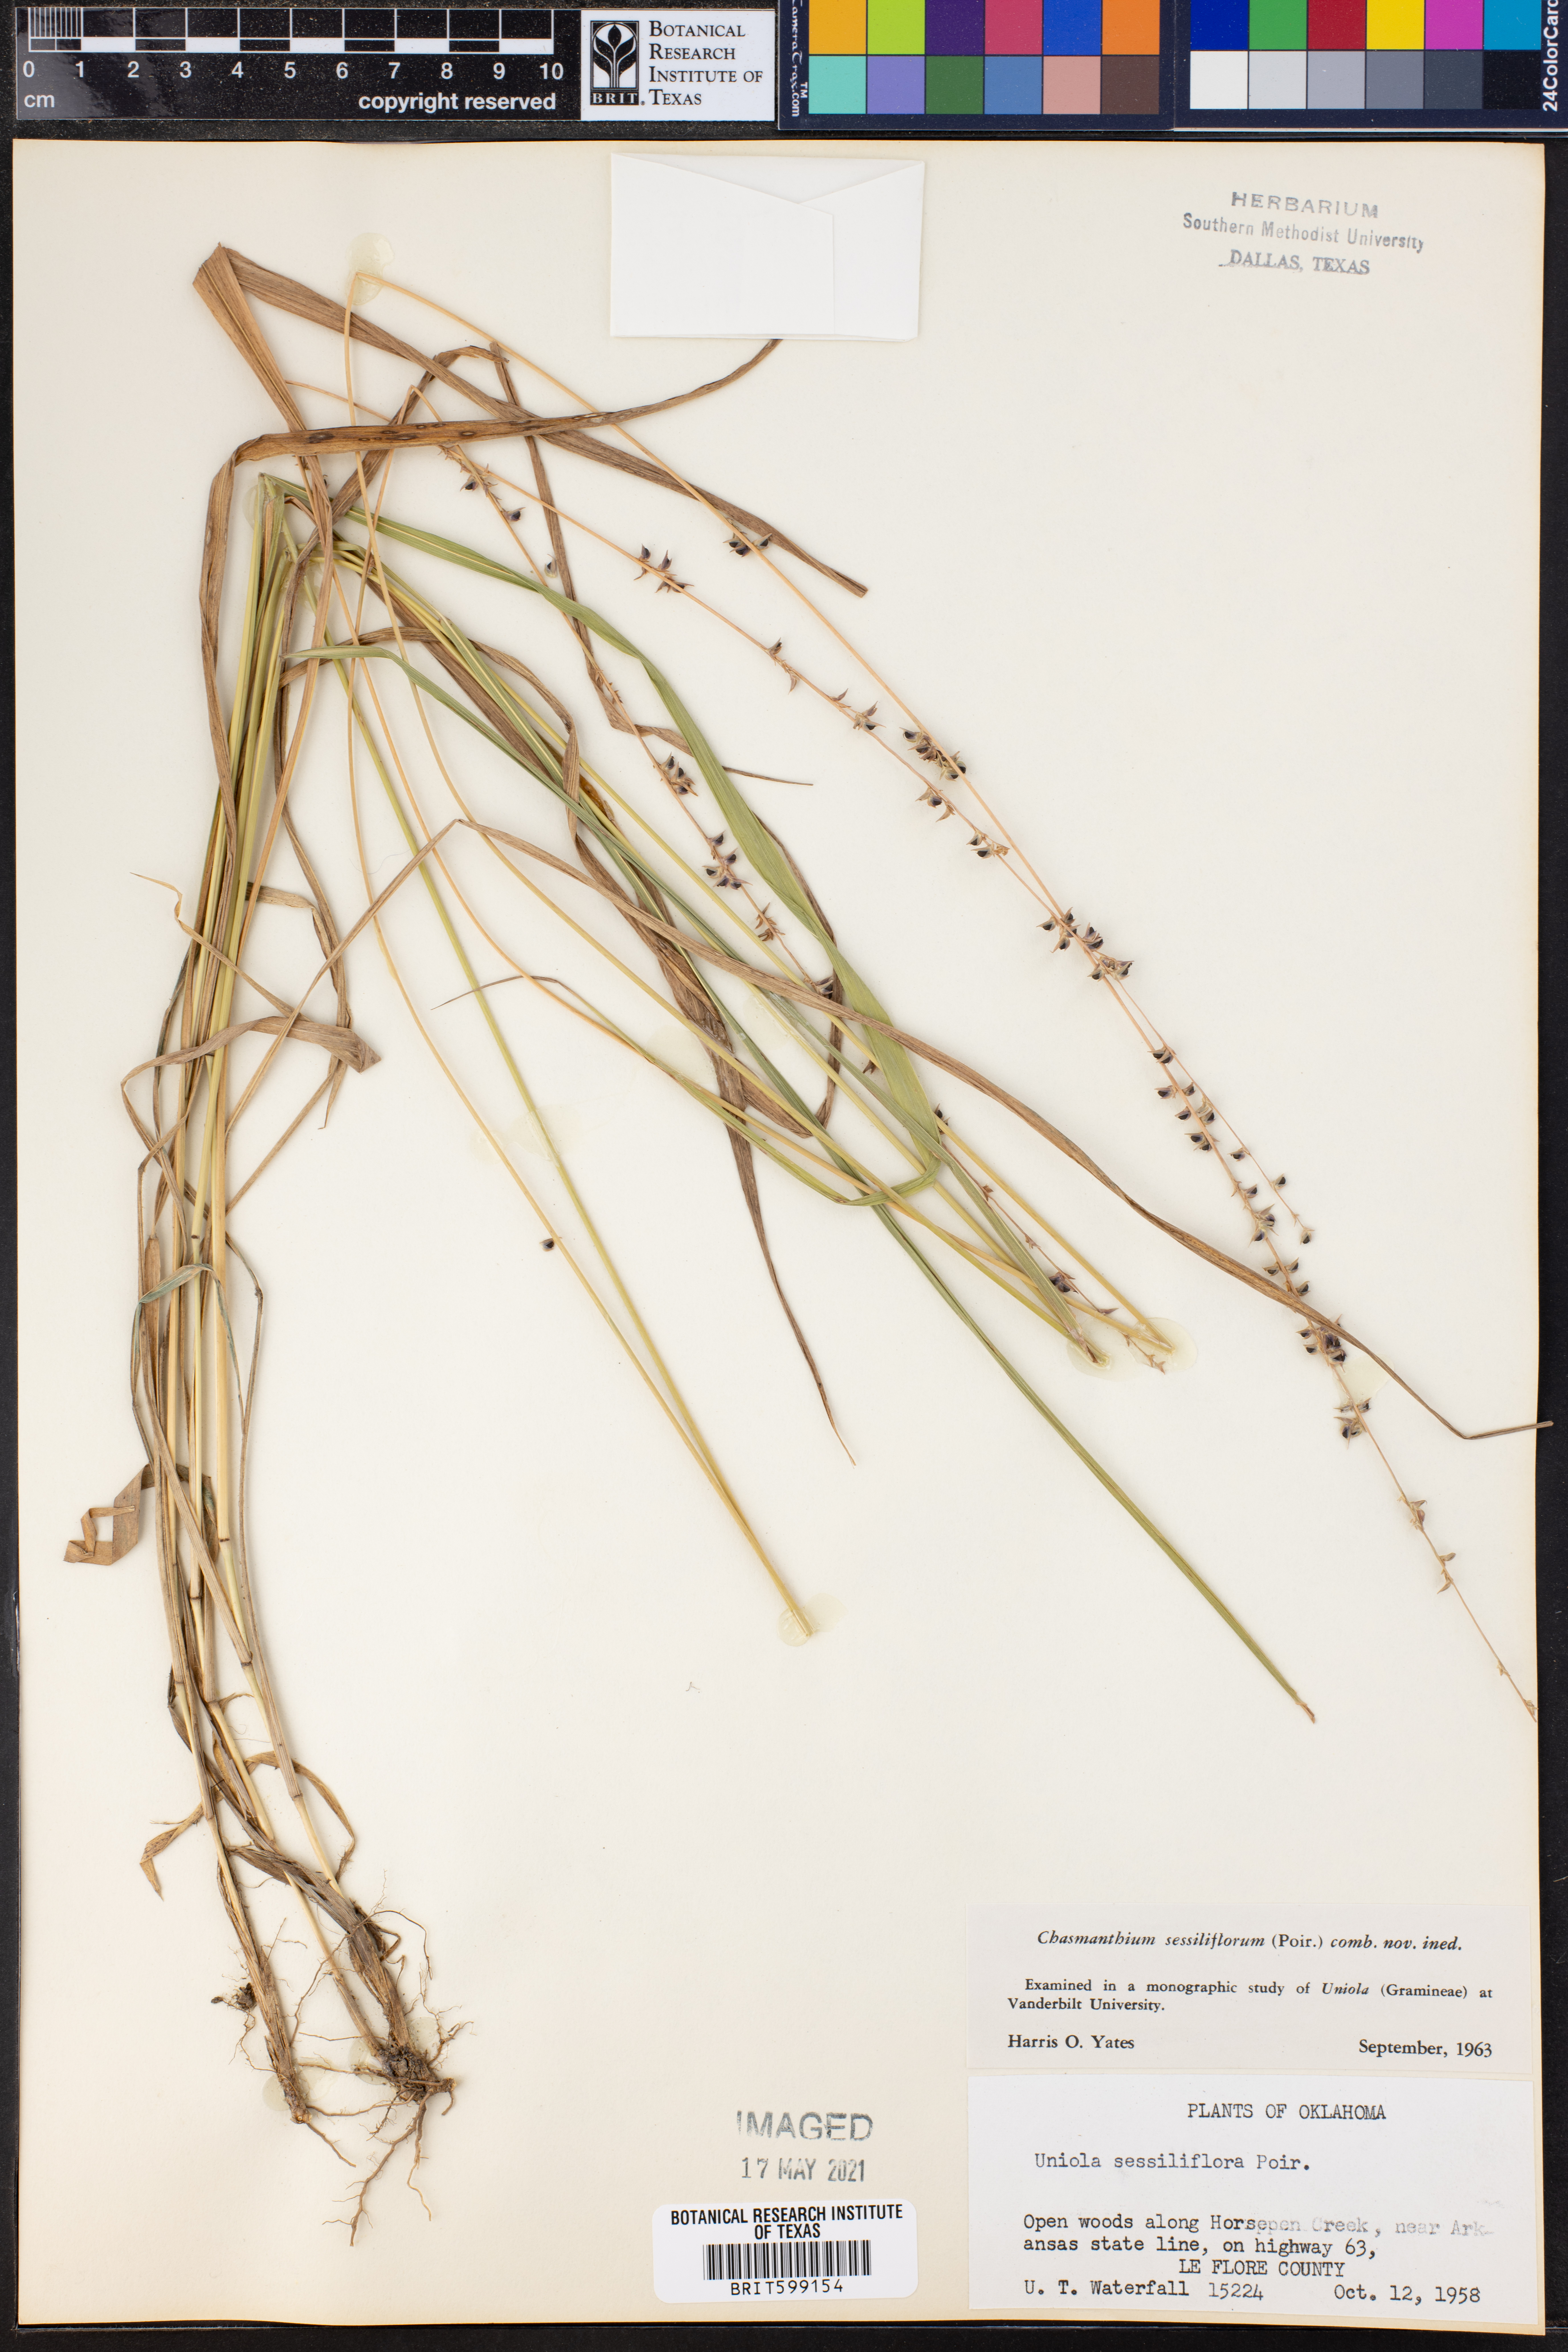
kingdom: Plantae
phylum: Tracheophyta
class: Liliopsida
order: Poales
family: Poaceae
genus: Chasmanthium
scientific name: Chasmanthium laxum
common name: Slender chasmanthium
